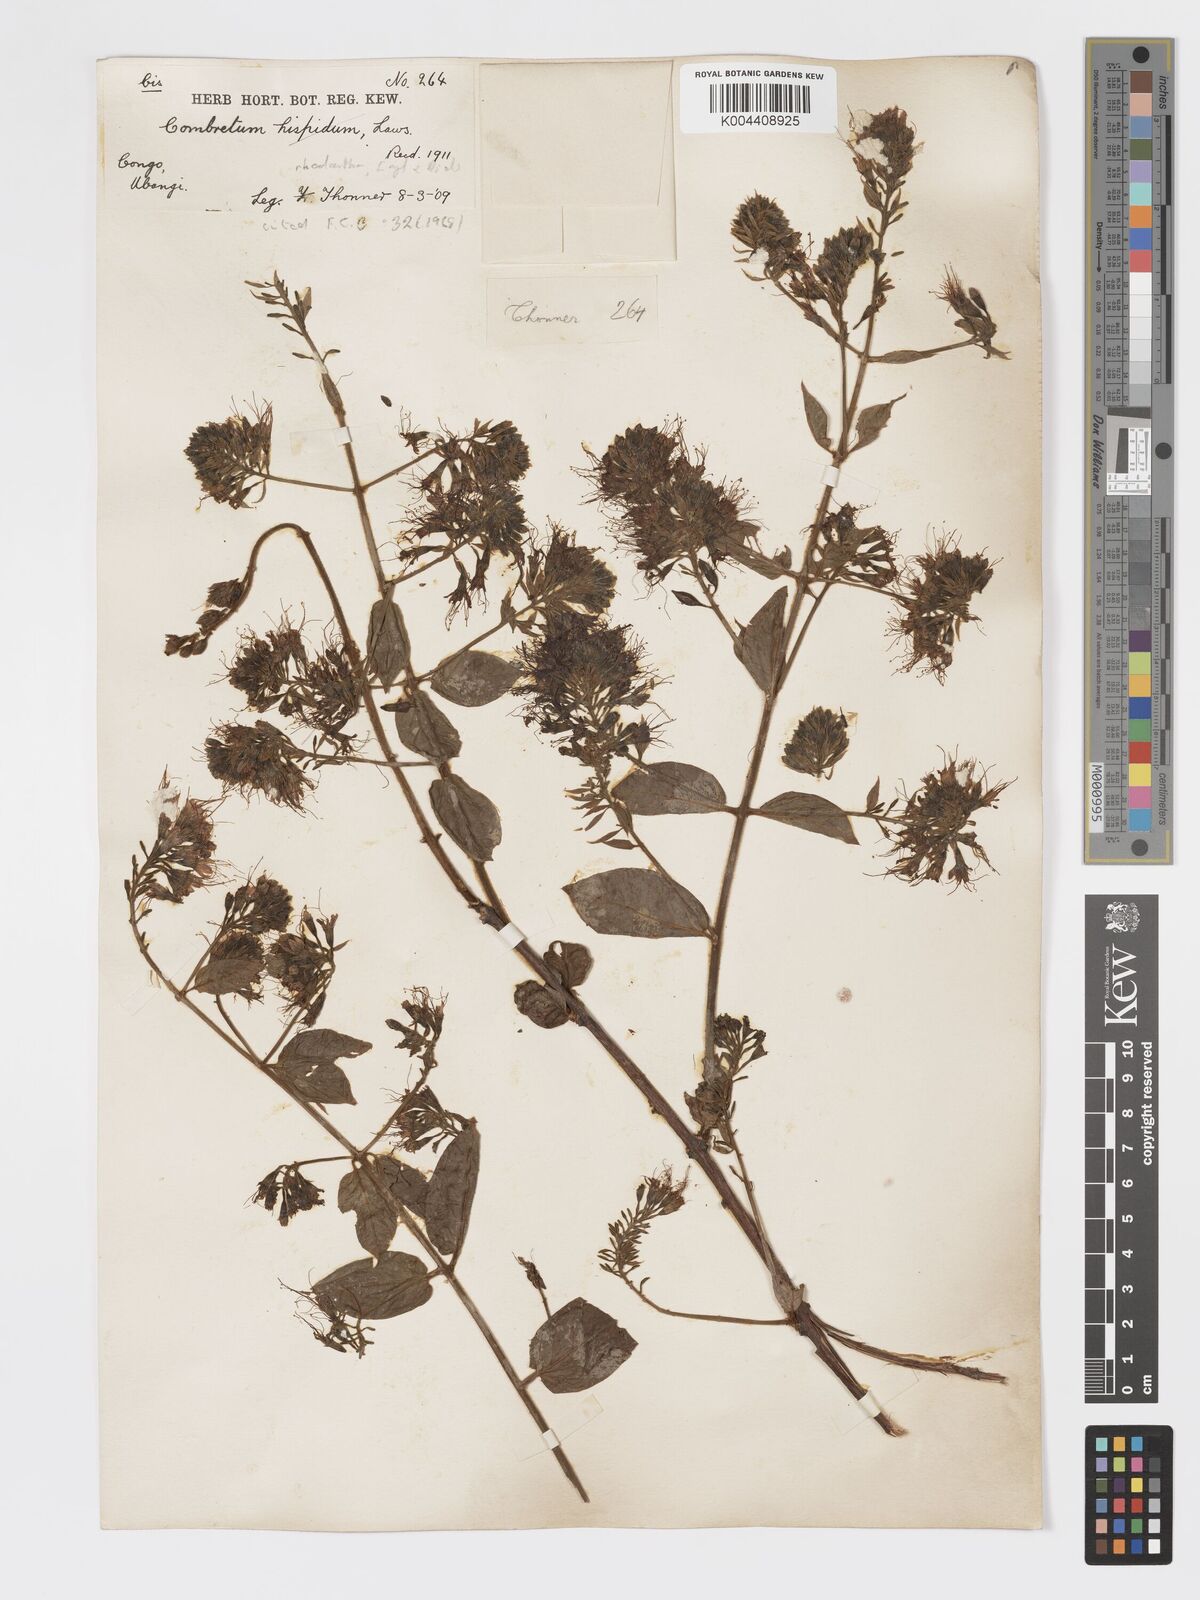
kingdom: Plantae
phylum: Tracheophyta
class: Magnoliopsida
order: Myrtales
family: Combretaceae
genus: Combretum
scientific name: Combretum comosum
